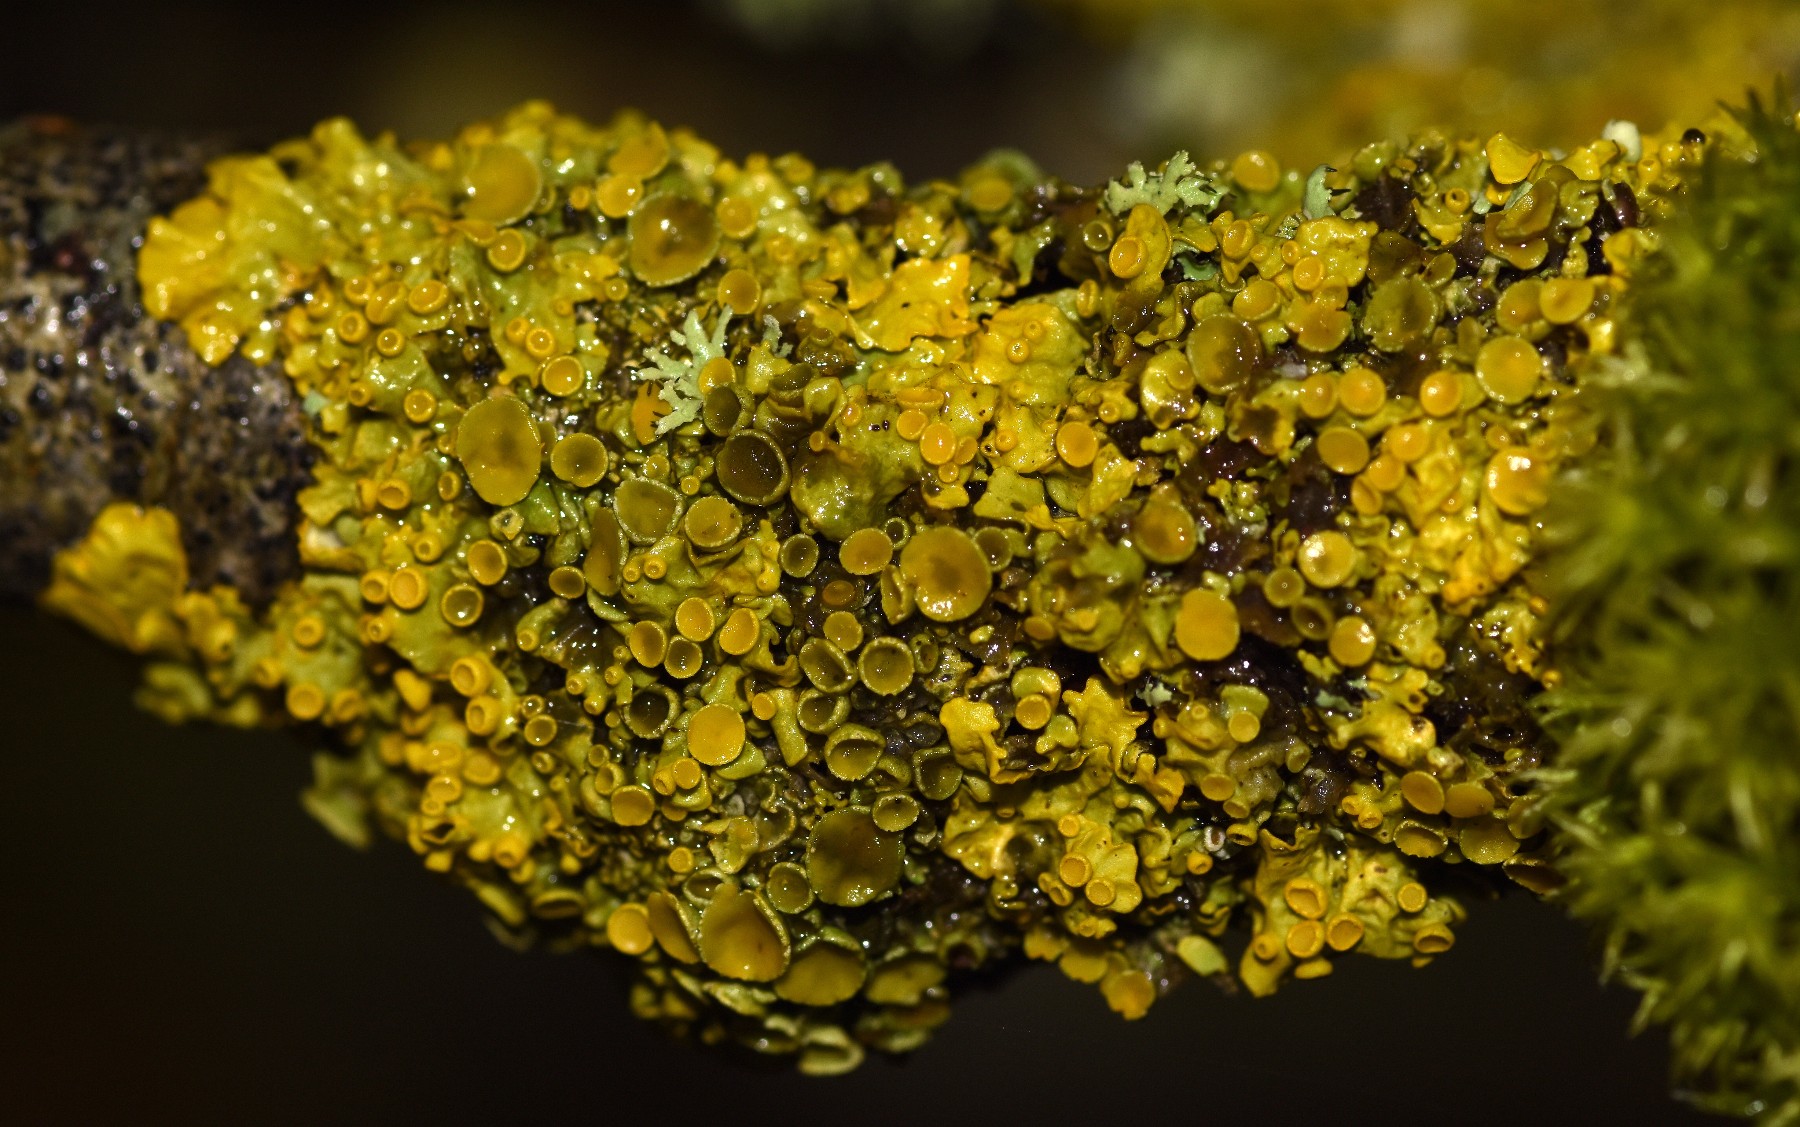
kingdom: Fungi
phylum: Ascomycota
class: Lecanoromycetes
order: Teloschistales
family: Teloschistaceae
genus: Xanthoria
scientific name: Xanthoria parietina
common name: almindelig væggelav
